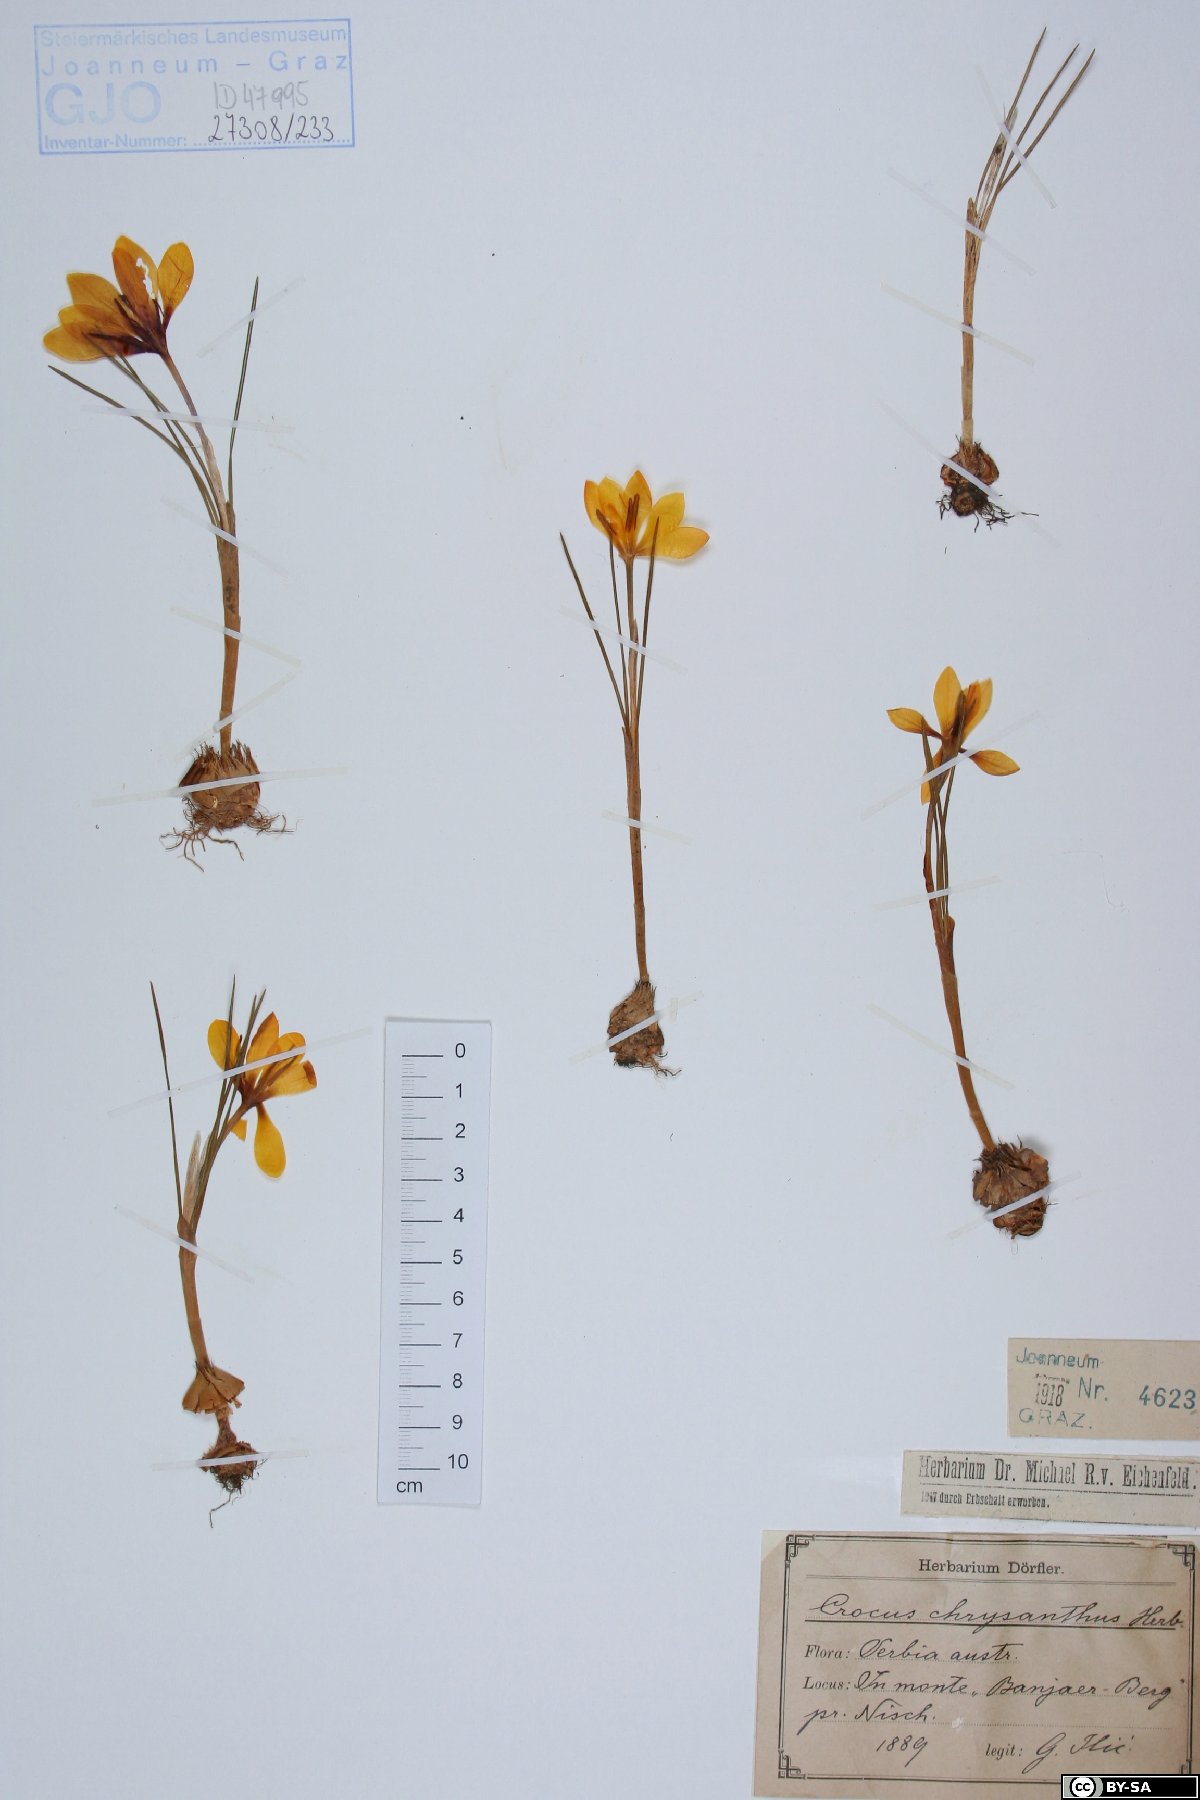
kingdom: Plantae
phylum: Tracheophyta
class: Liliopsida
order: Asparagales
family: Iridaceae
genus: Crocus
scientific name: Crocus chrysanthus
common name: Golden crocus
